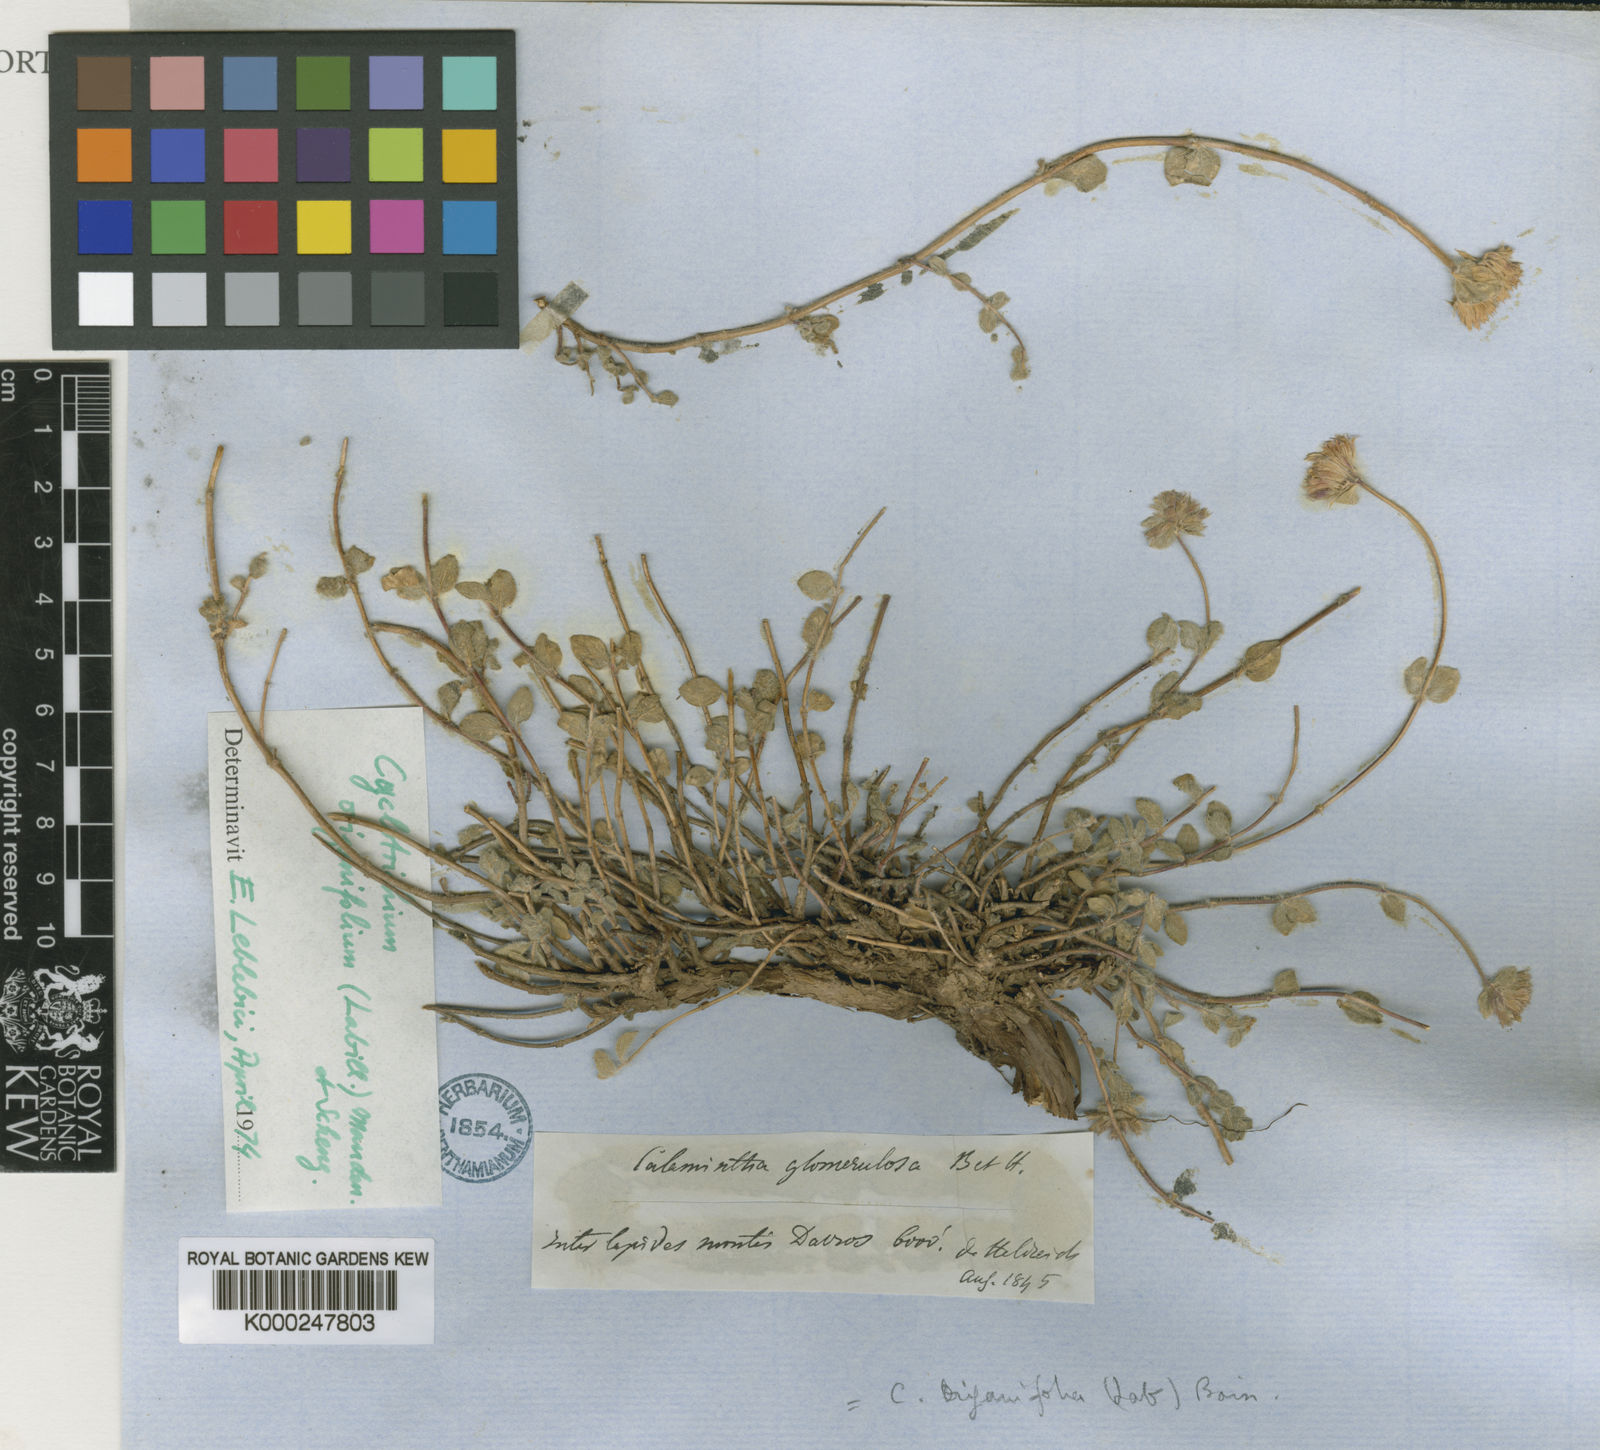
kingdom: Plantae
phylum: Tracheophyta
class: Magnoliopsida
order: Lamiales
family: Lamiaceae
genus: Cyclotrichium
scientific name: Cyclotrichium origanifolium
